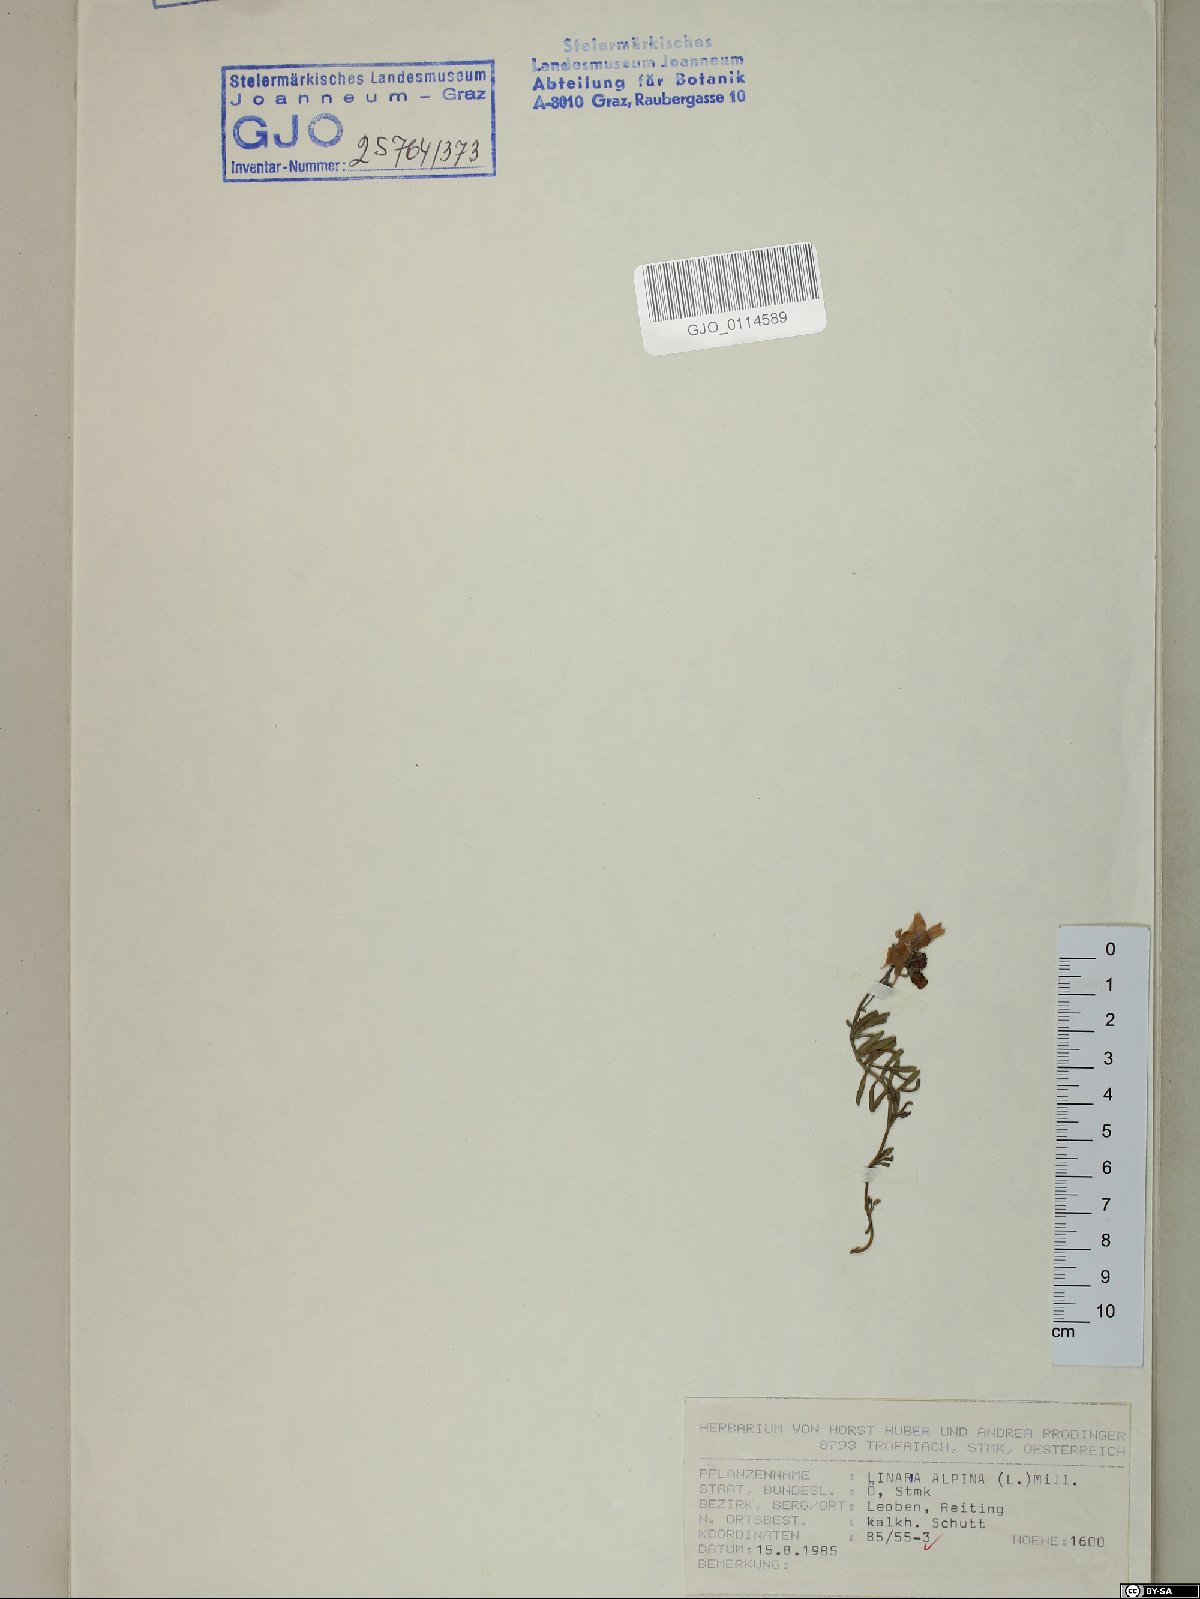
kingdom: Plantae
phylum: Tracheophyta
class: Magnoliopsida
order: Lamiales
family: Plantaginaceae
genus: Linaria
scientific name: Linaria alpina
